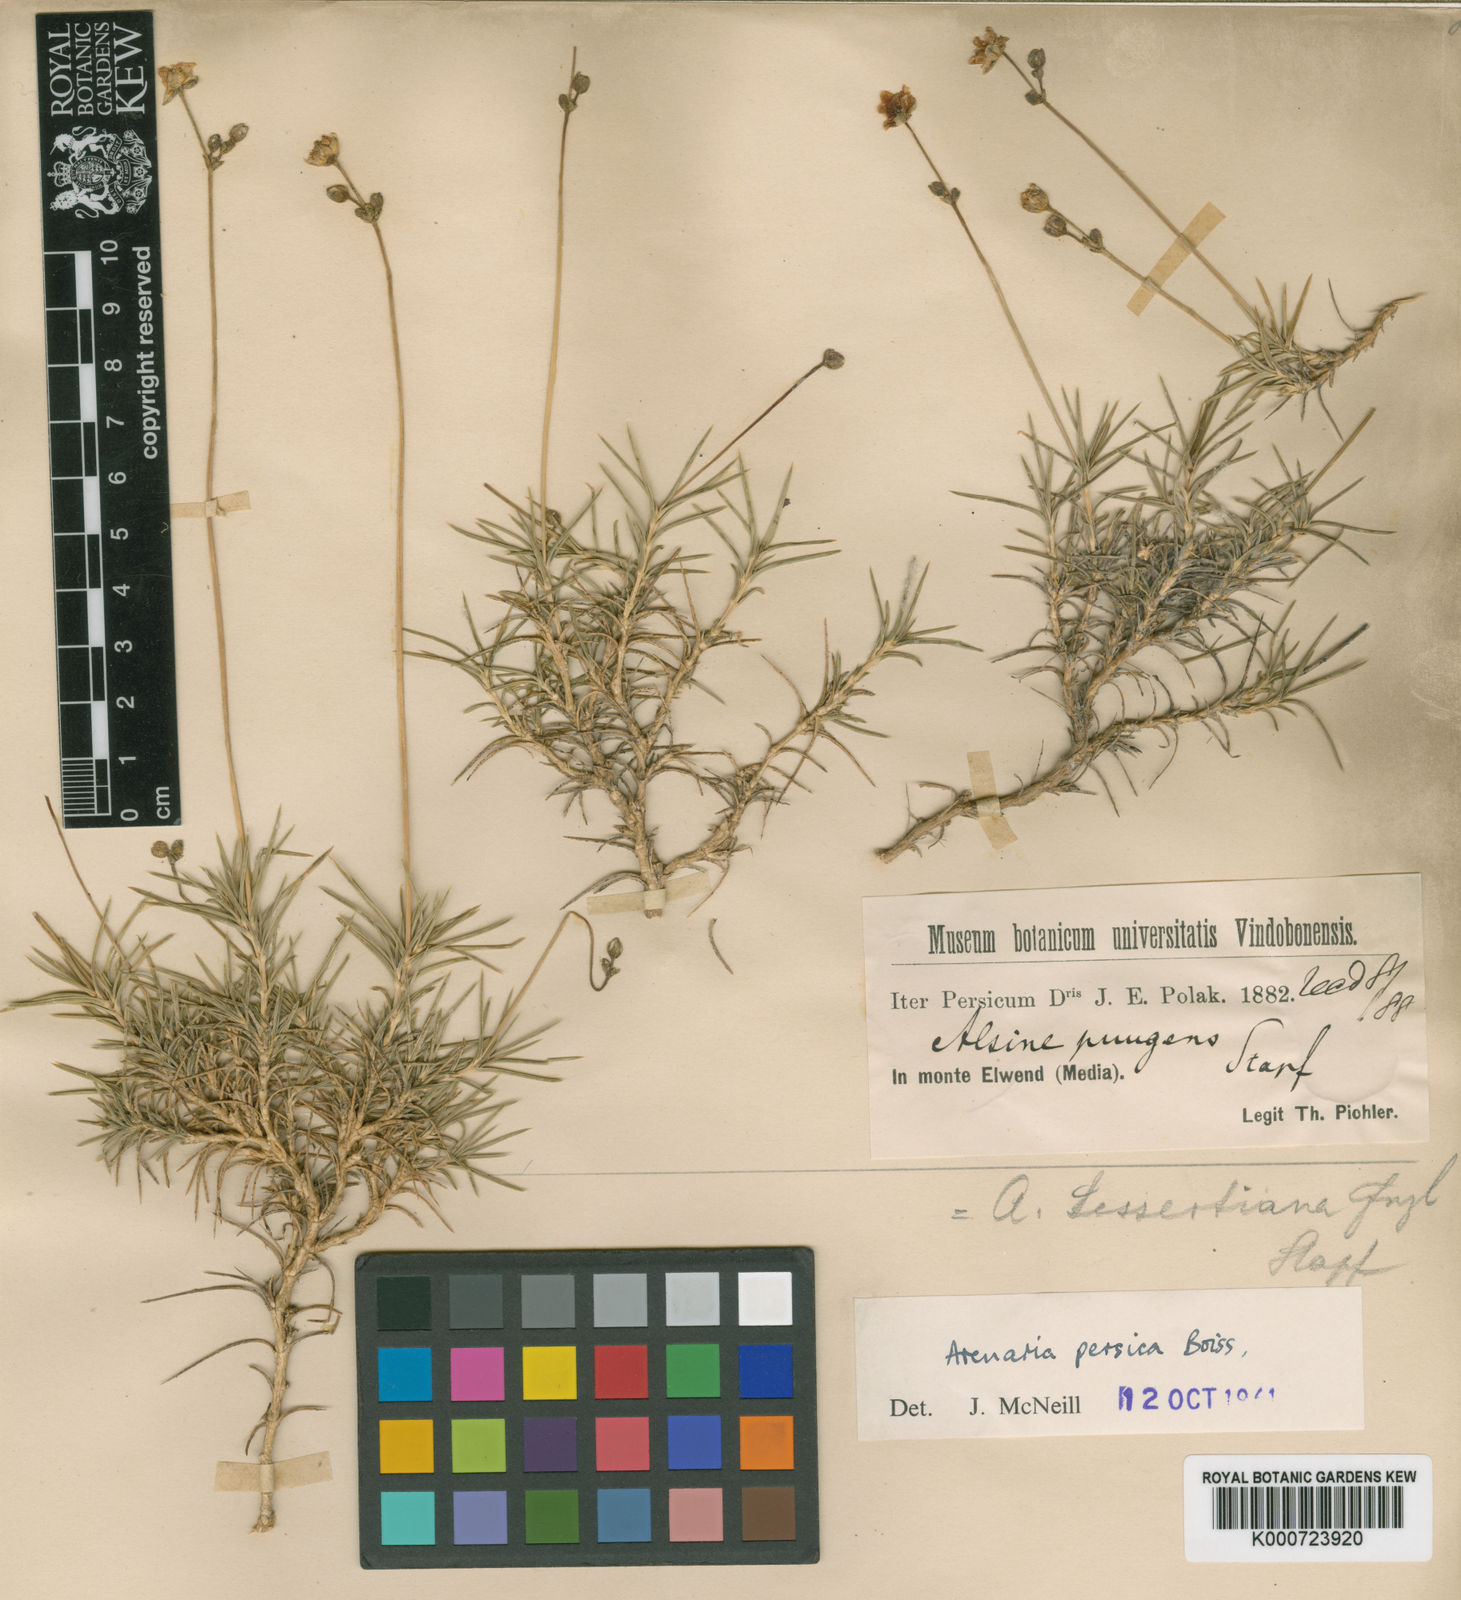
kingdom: Plantae
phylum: Tracheophyta
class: Magnoliopsida
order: Caryophyllales
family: Caryophyllaceae
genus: Eremogone
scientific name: Eremogone persica
